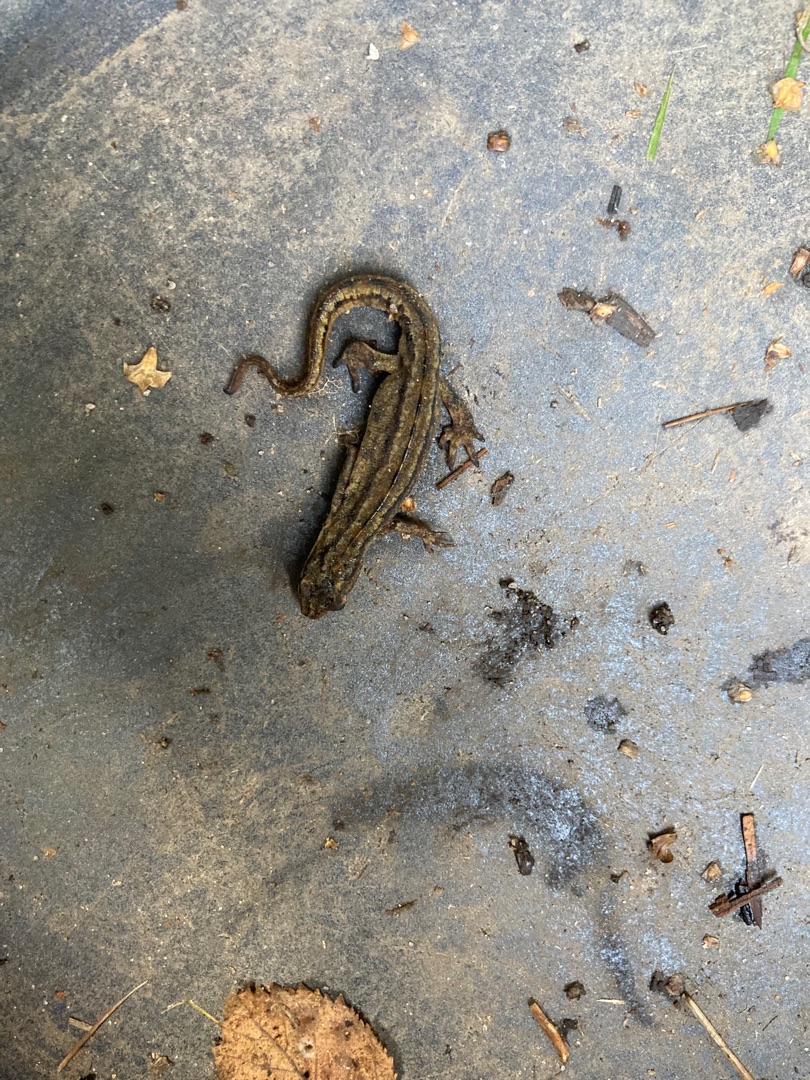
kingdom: Animalia
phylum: Chordata
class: Amphibia
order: Caudata
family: Salamandridae
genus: Lissotriton
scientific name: Lissotriton vulgaris
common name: Lille vandsalamander
